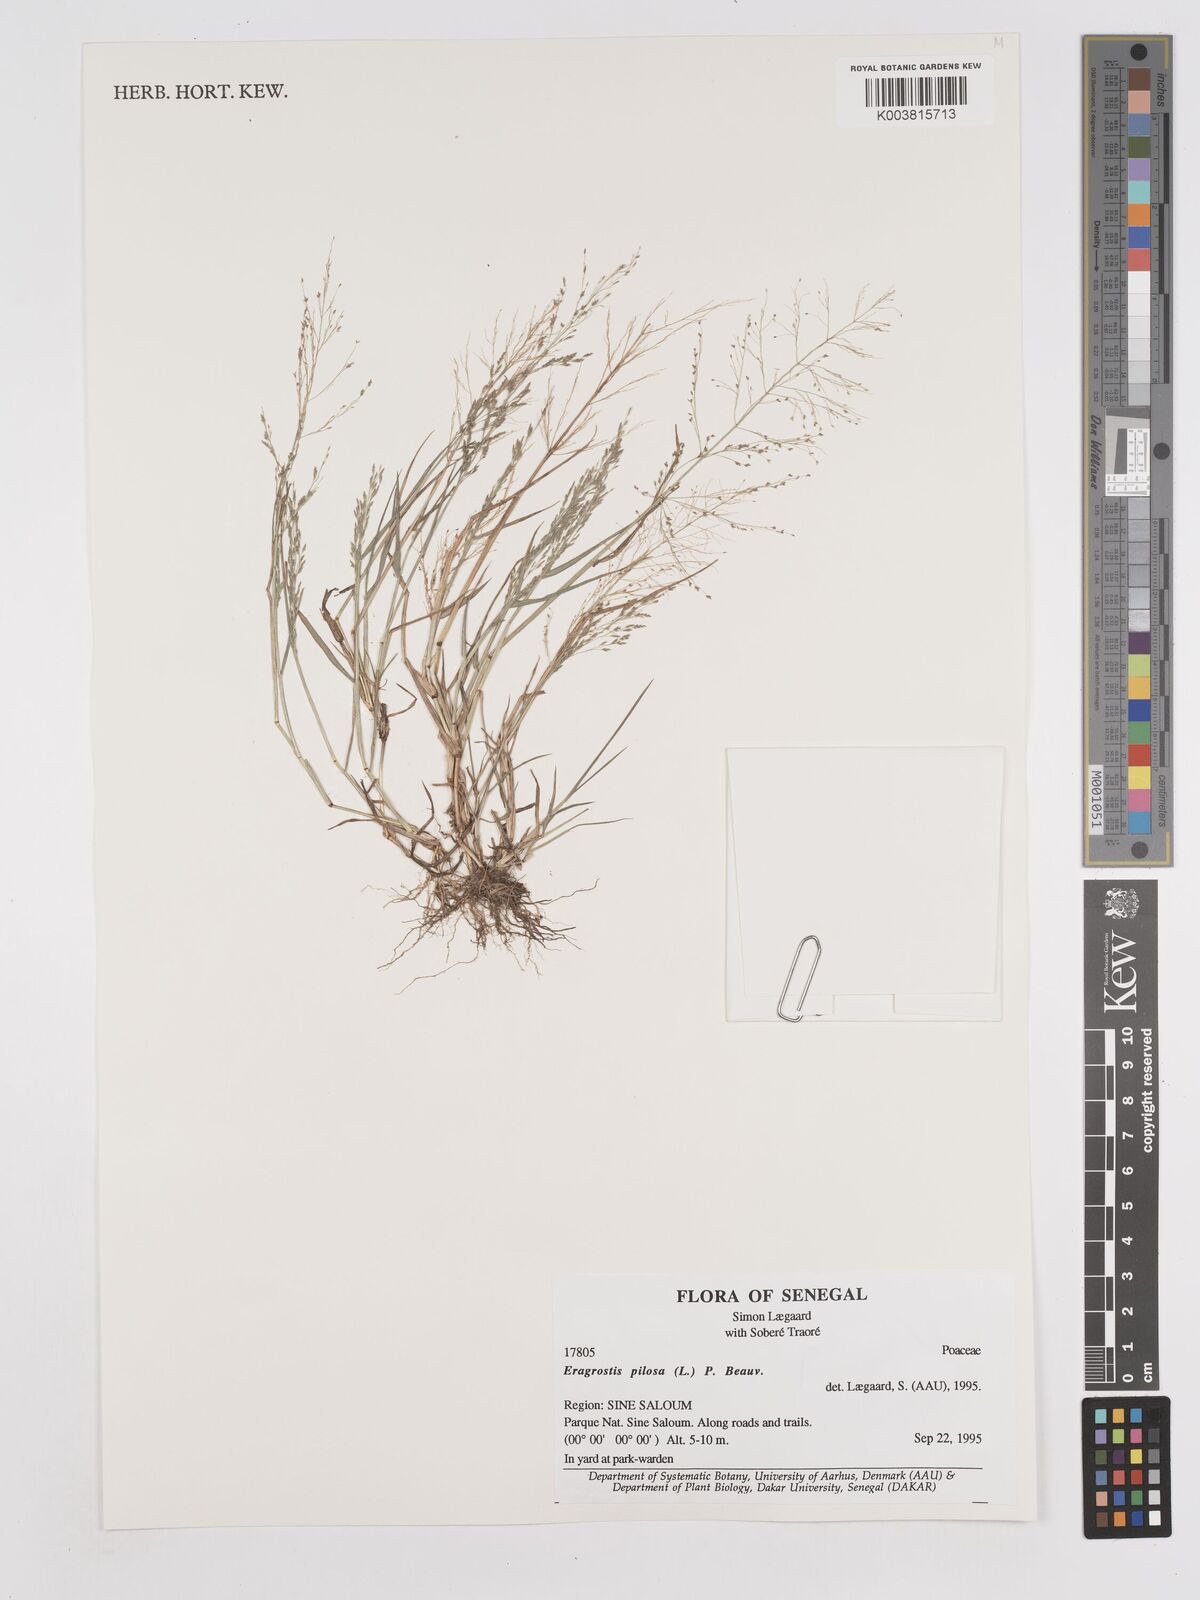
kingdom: Plantae
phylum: Tracheophyta
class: Liliopsida
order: Poales
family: Poaceae
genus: Eragrostis
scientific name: Eragrostis pilosa
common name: Indian lovegrass
